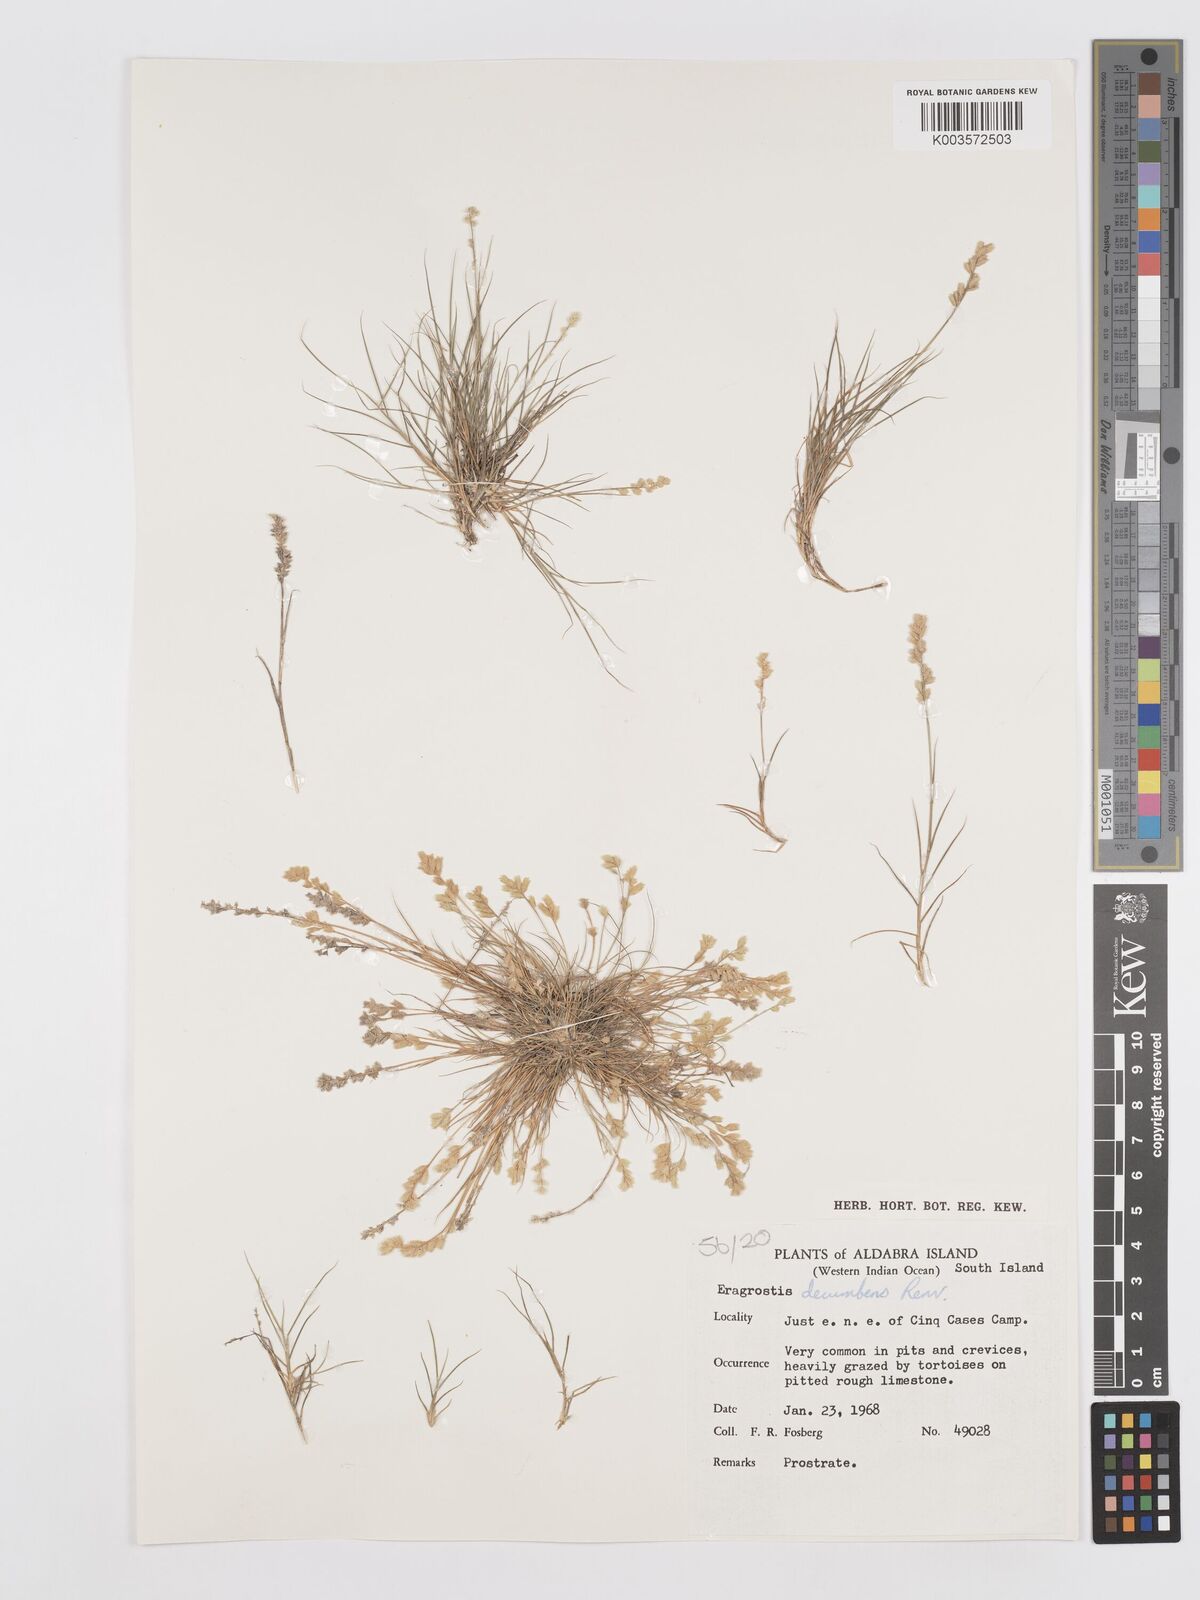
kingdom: Plantae
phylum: Tracheophyta
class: Liliopsida
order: Poales
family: Poaceae
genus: Eragrostis
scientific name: Eragrostis decumbens
